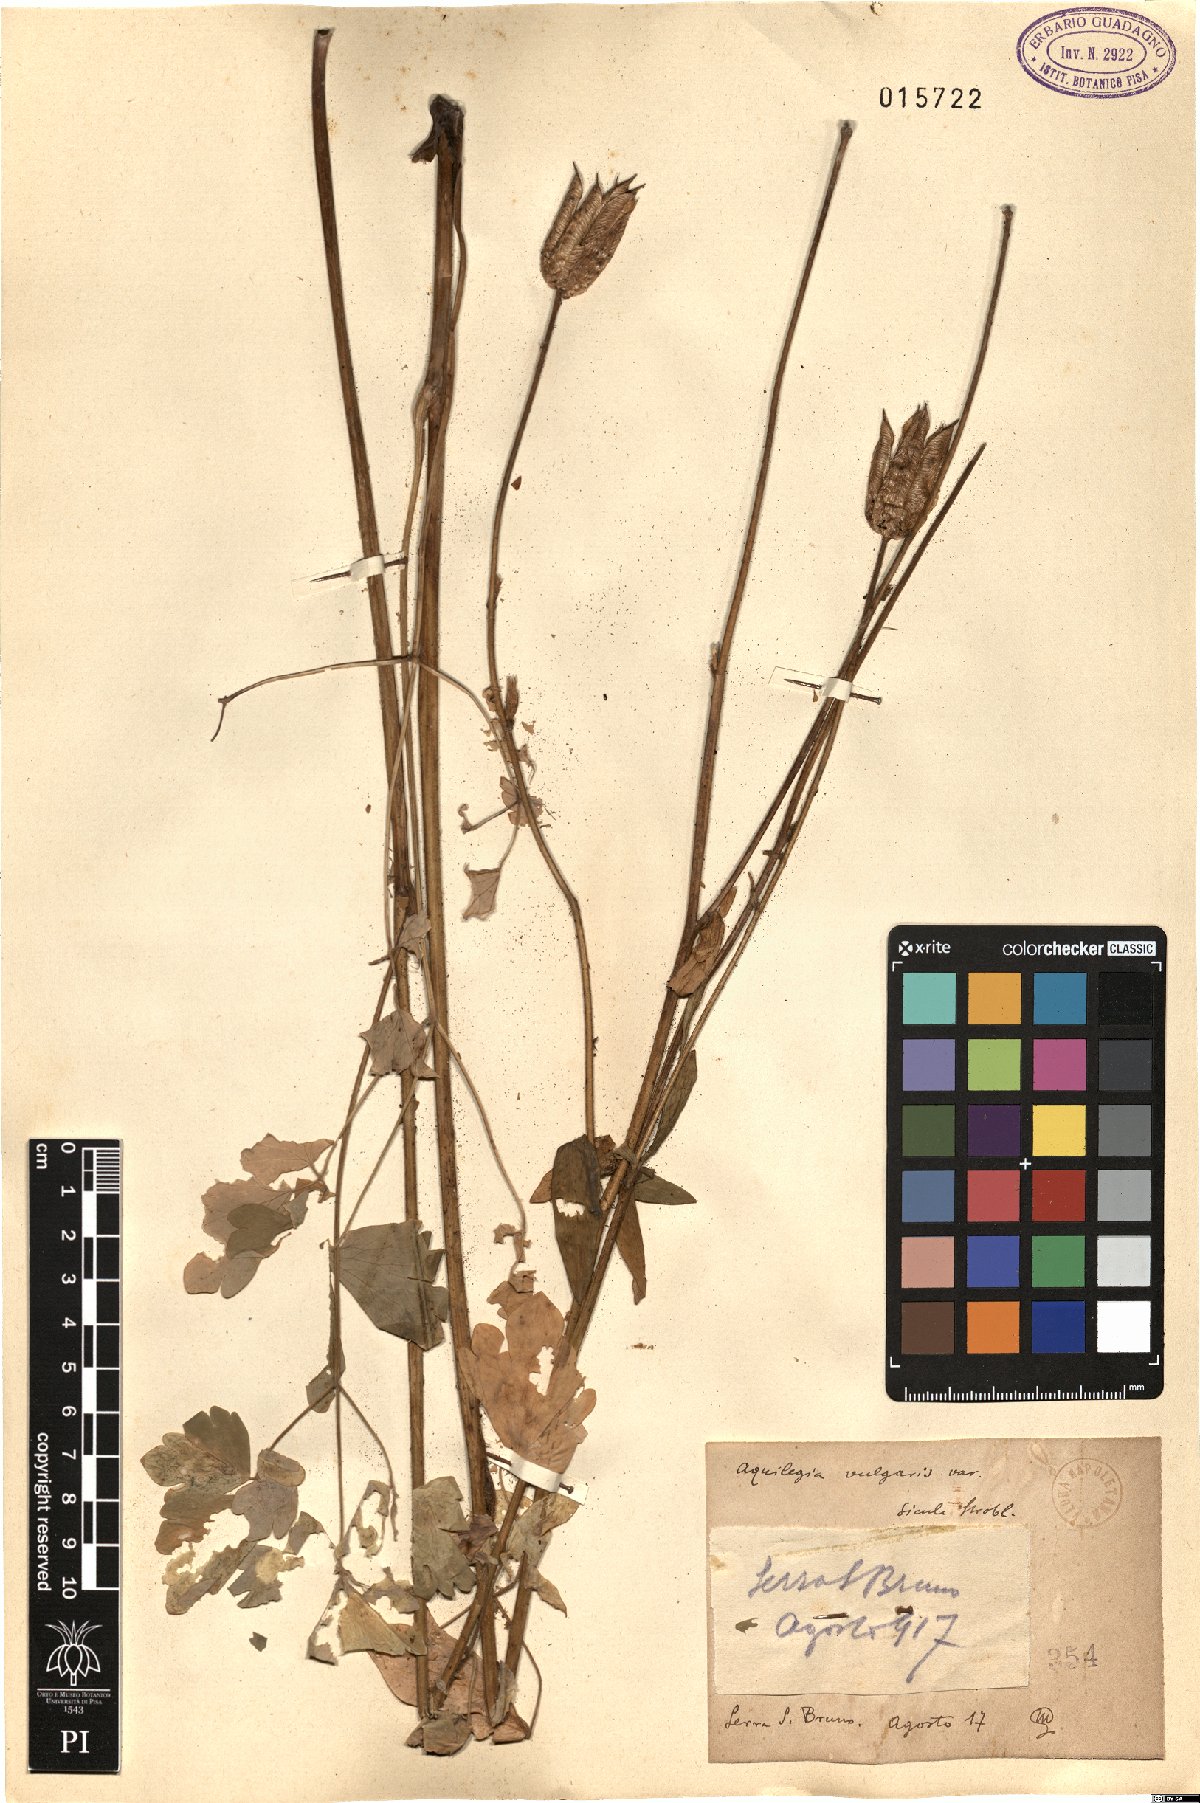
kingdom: Plantae
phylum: Tracheophyta
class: Magnoliopsida
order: Ranunculales
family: Ranunculaceae
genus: Aquilegia
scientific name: Aquilegia sicula
